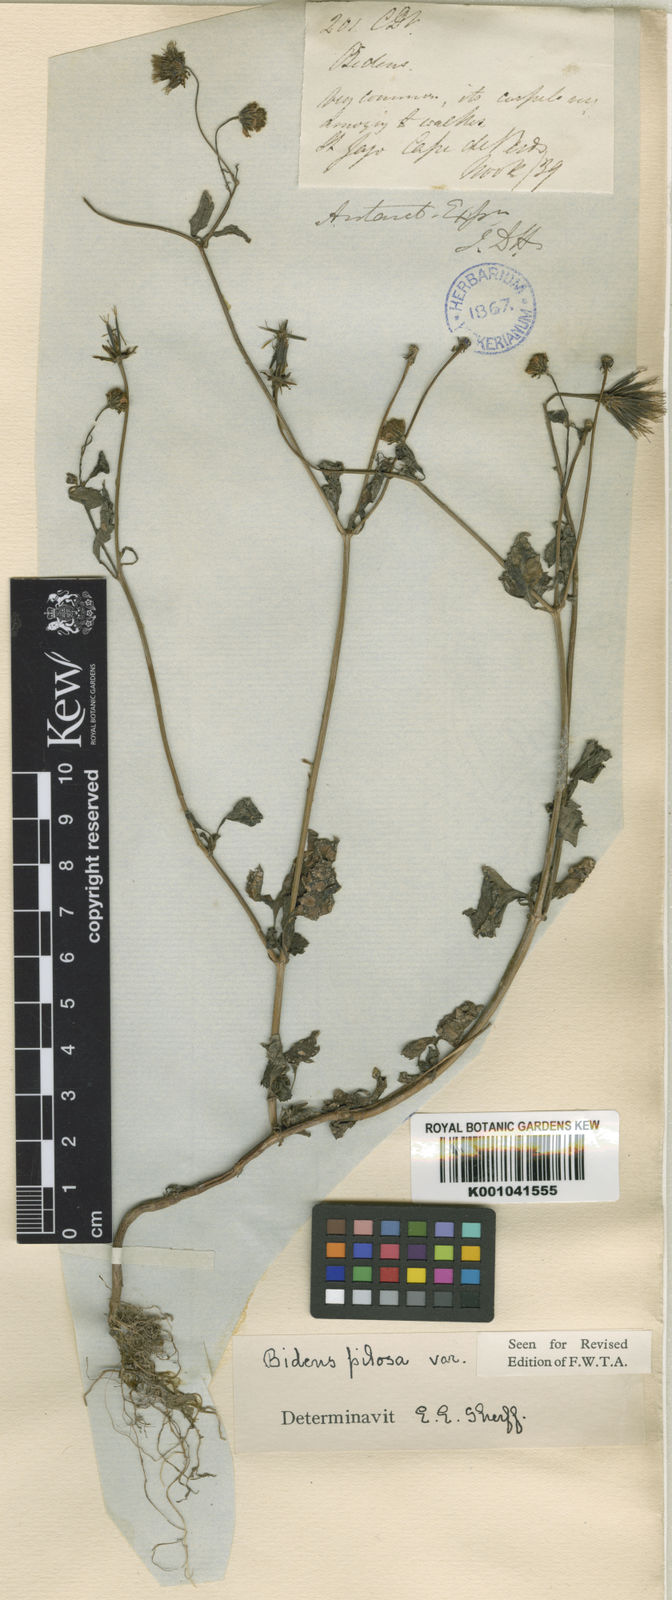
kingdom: Plantae
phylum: Tracheophyta
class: Magnoliopsida
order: Asterales
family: Asteraceae
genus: Bidens
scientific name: Bidens pilosa
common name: Black-jack
